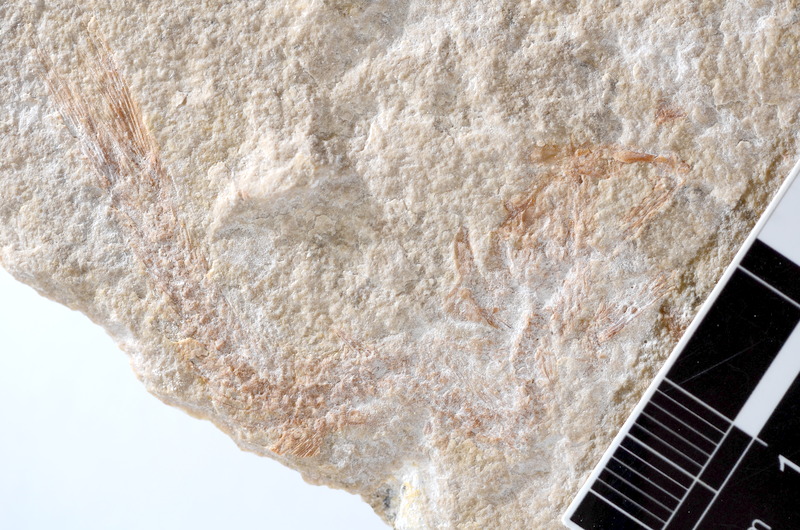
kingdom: Animalia
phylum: Chordata
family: Ascalaboidae
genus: Tharsis
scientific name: Tharsis dubius
